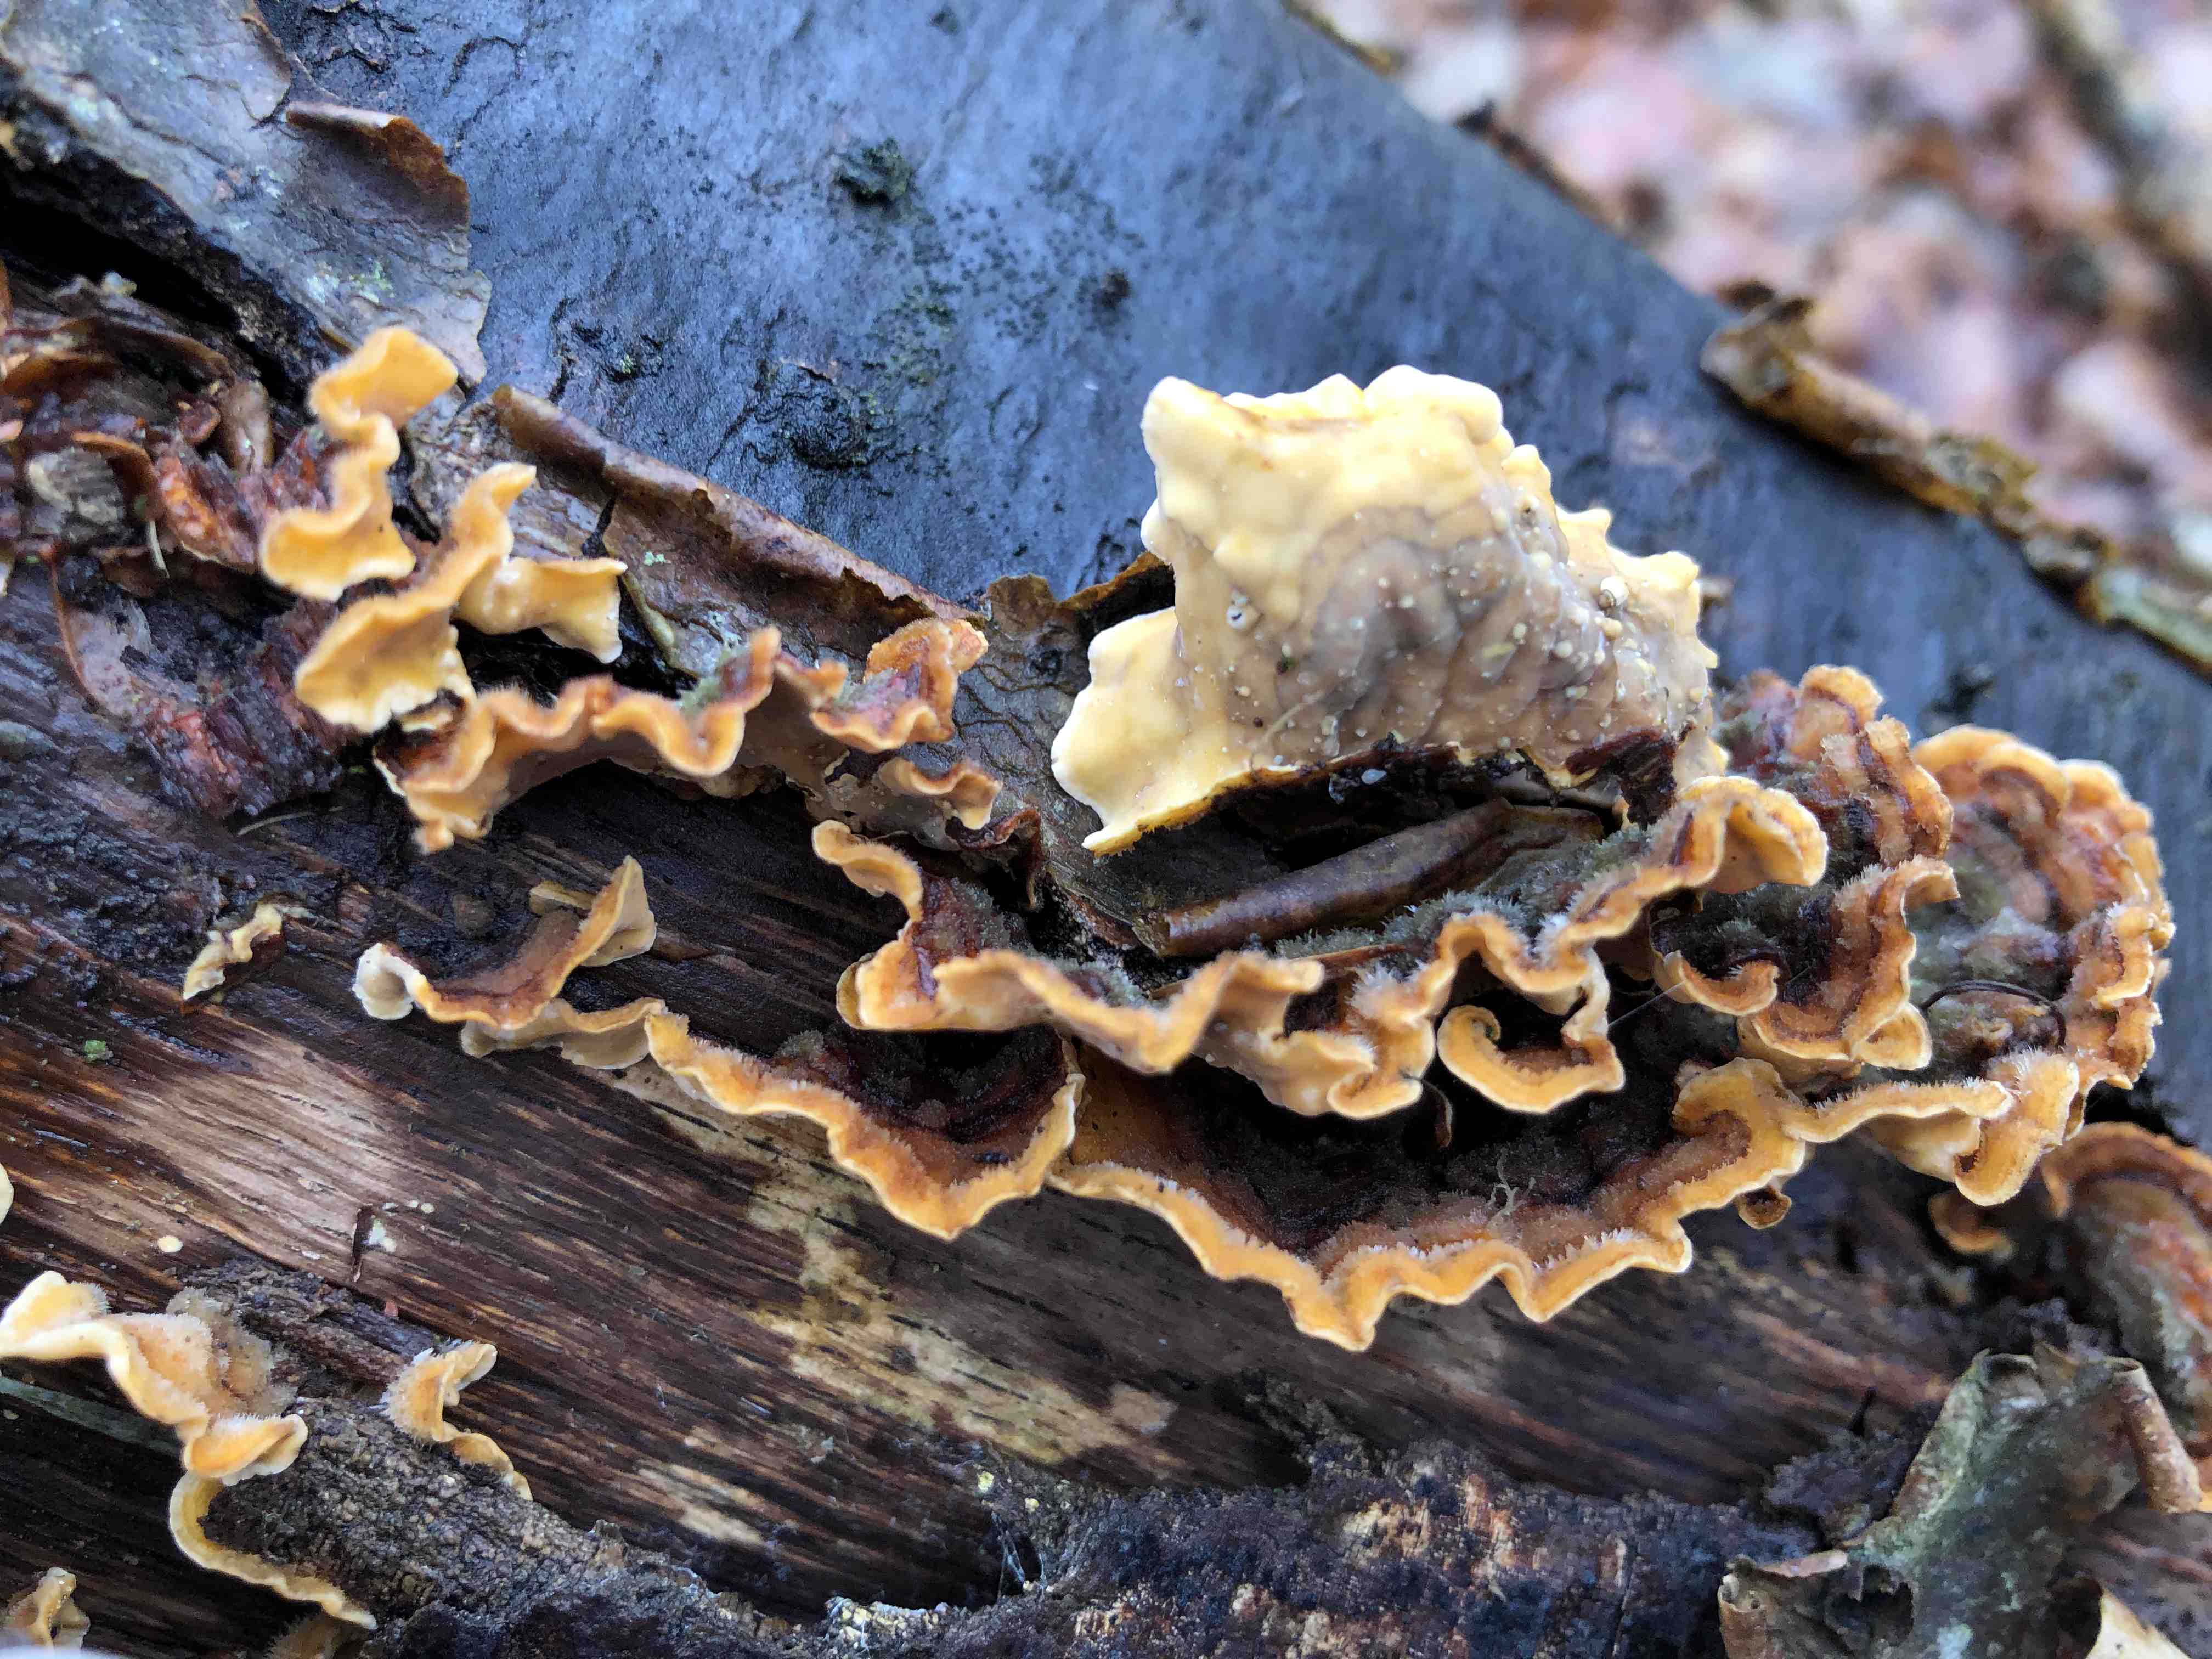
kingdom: Fungi
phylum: Basidiomycota
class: Agaricomycetes
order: Russulales
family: Stereaceae
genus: Stereum
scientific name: Stereum hirsutum
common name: håret lædersvamp
